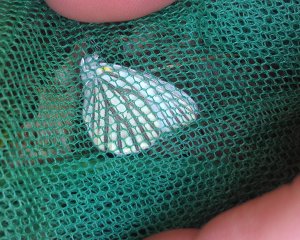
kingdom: Animalia
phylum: Arthropoda
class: Insecta
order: Lepidoptera
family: Pieridae
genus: Pieris
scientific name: Pieris oleracea
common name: Mustard White
